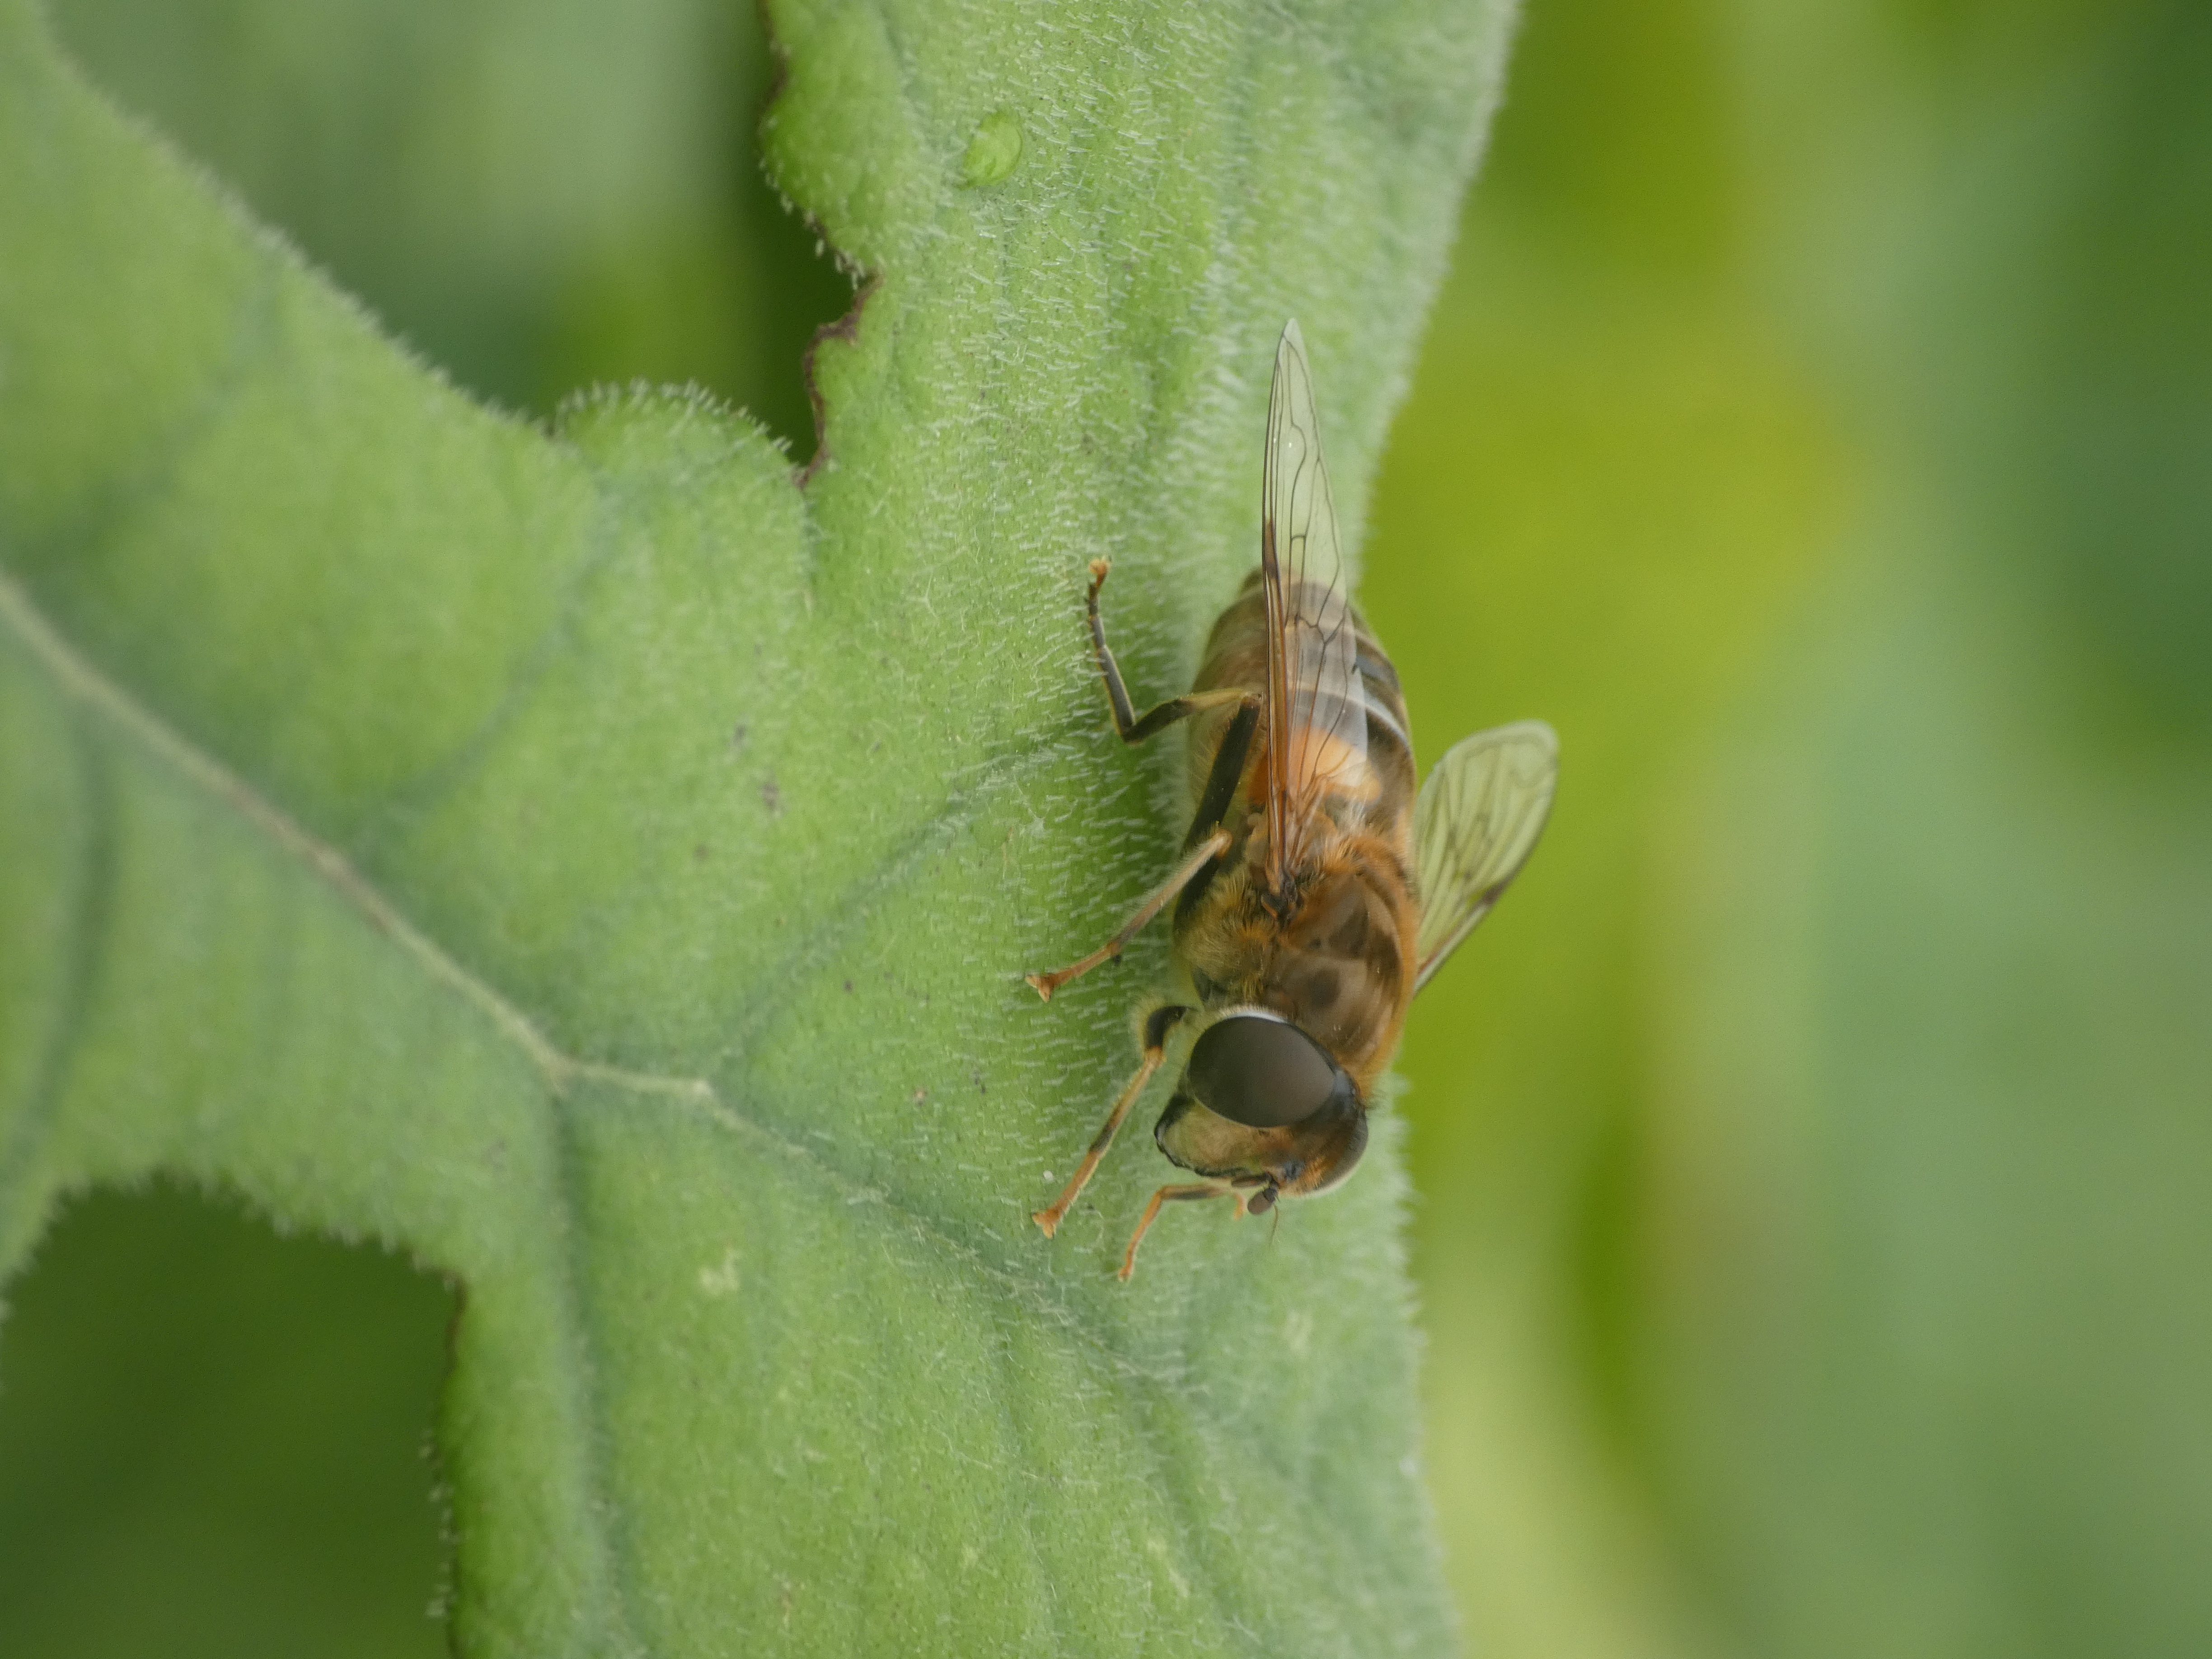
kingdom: Animalia
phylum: Arthropoda
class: Insecta
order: Diptera
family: Syrphidae
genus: Eristalis
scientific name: Eristalis pertinax
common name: Gulfodet dyndflue
